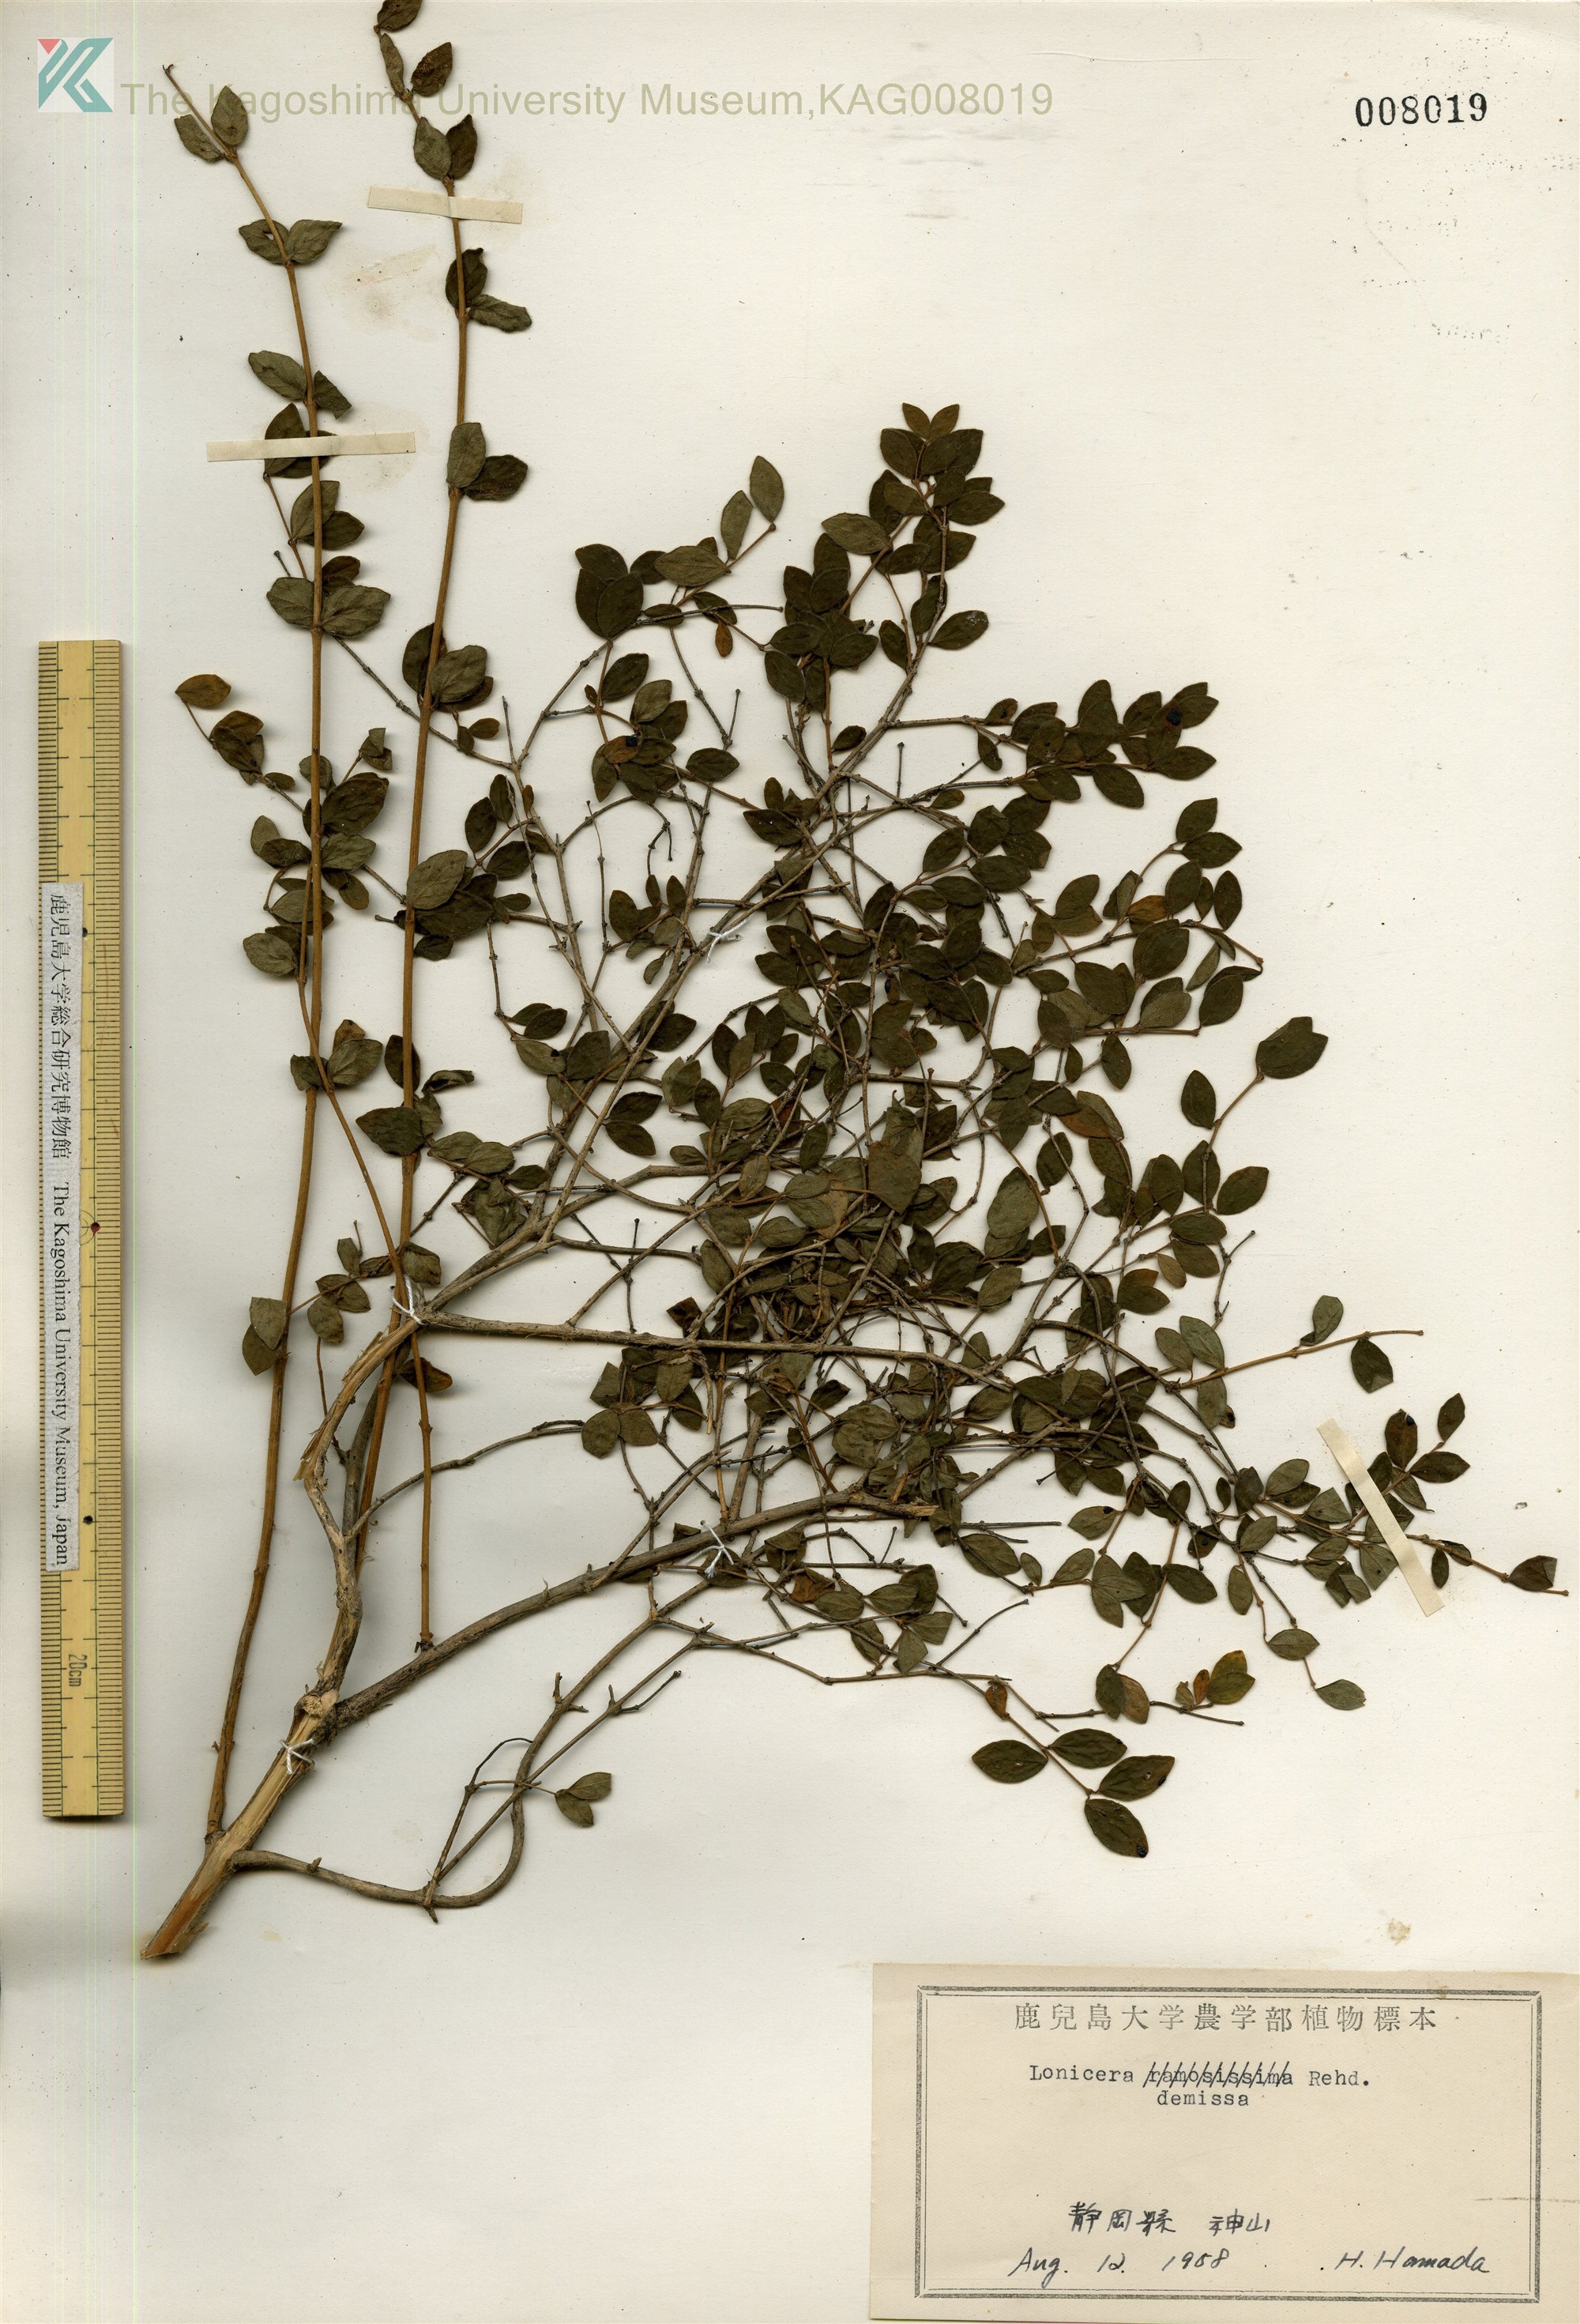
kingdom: Plantae
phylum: Tracheophyta
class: Magnoliopsida
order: Dipsacales
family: Caprifoliaceae
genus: Lonicera
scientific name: Lonicera demissa
